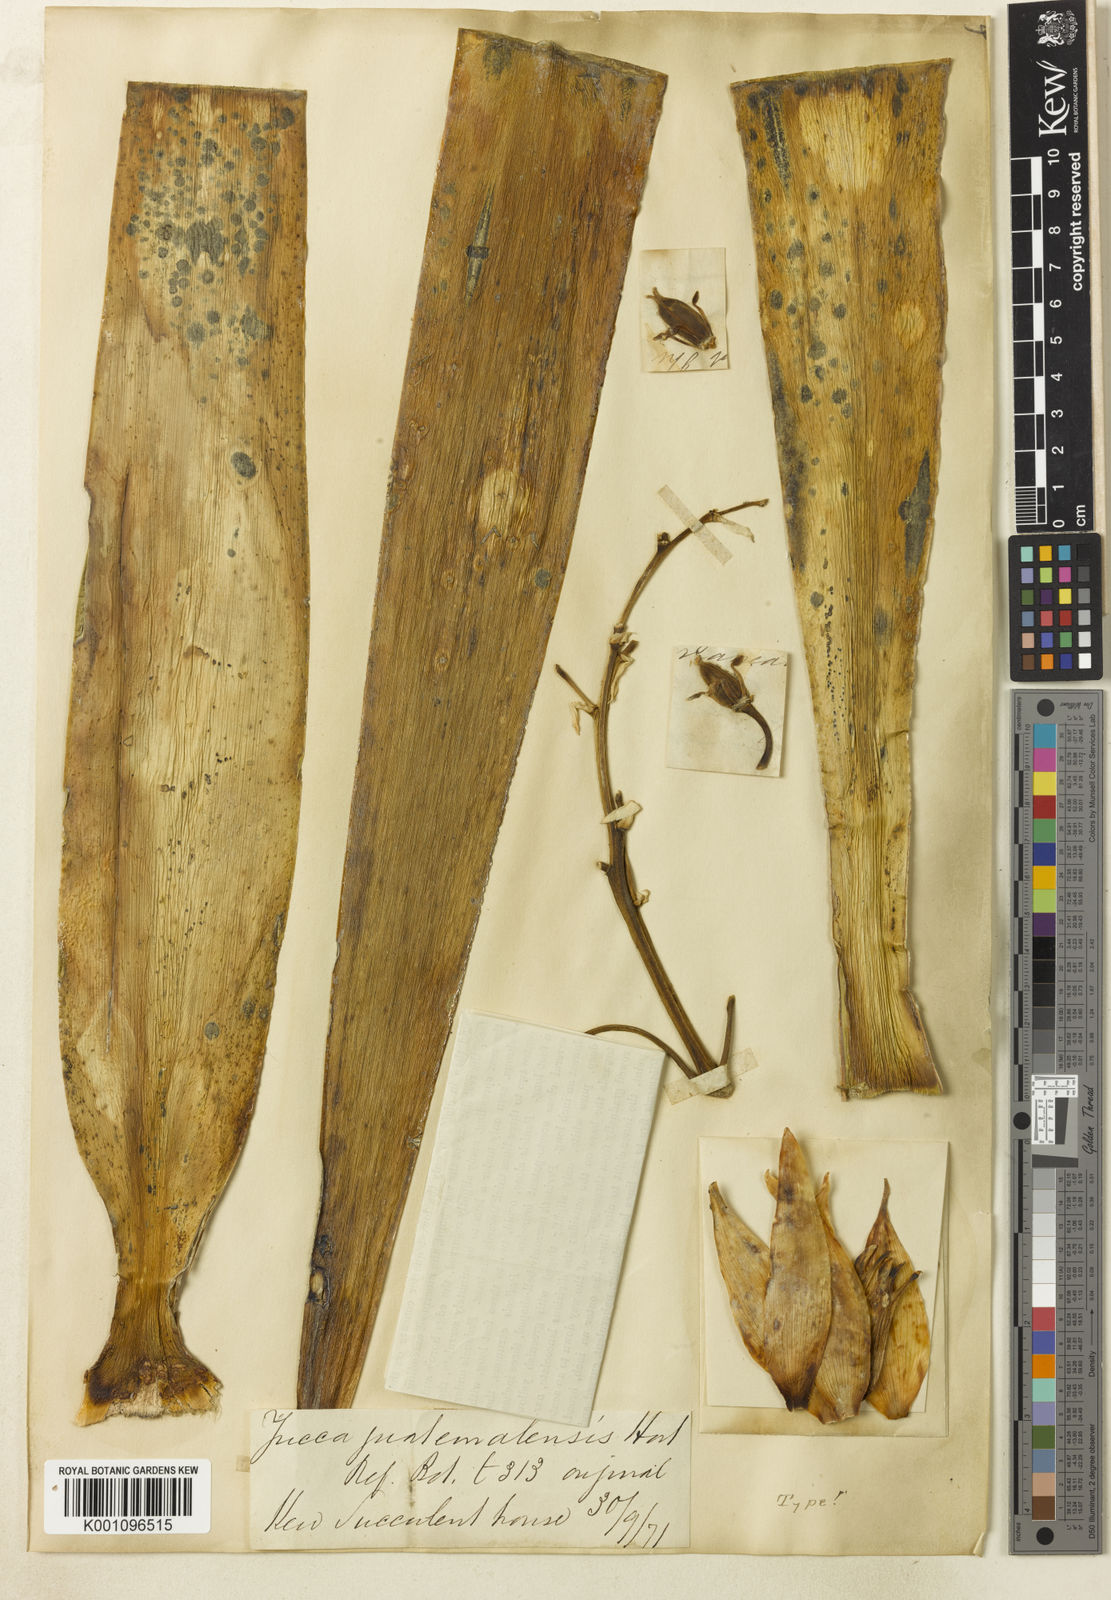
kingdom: Plantae
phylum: Tracheophyta
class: Liliopsida
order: Asparagales
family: Asparagaceae
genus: Yucca
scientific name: Yucca gigantea
